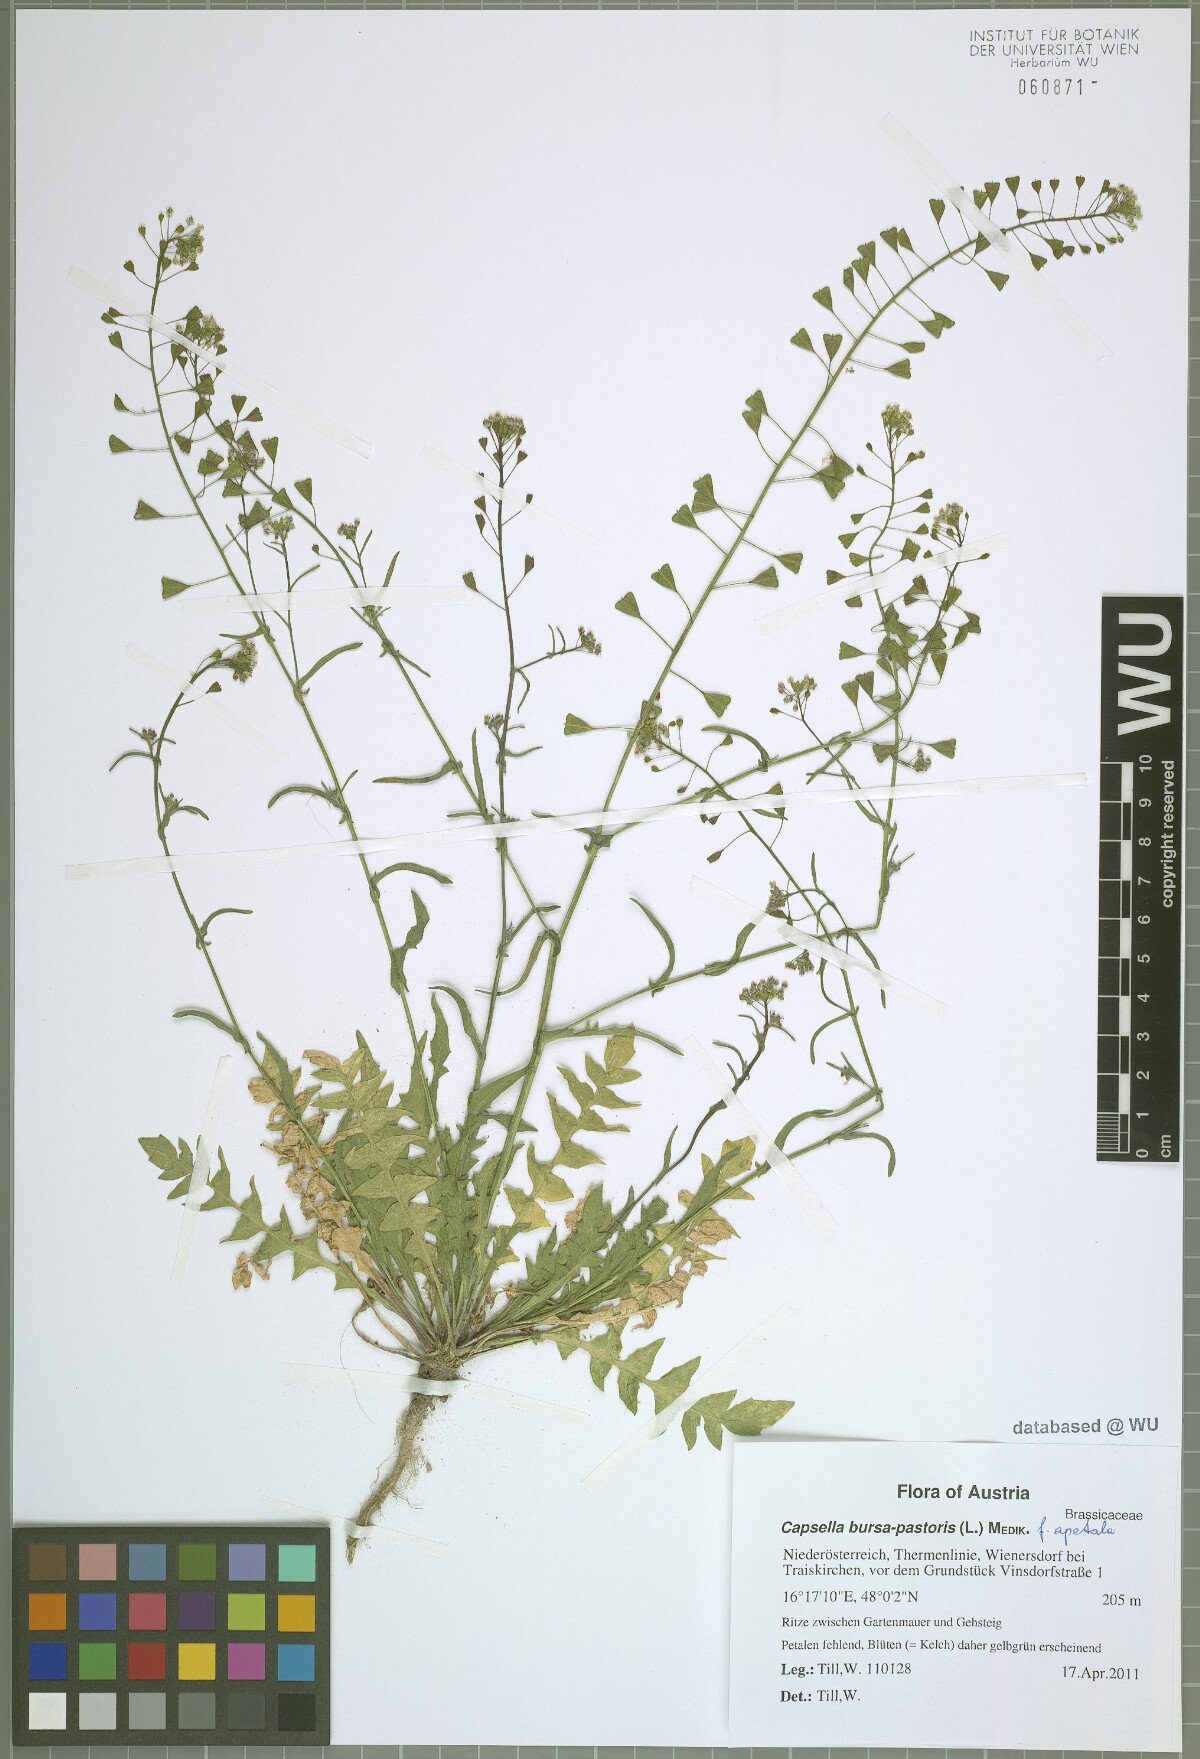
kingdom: Plantae
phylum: Tracheophyta
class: Magnoliopsida
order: Brassicales
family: Brassicaceae
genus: Capsella
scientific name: Capsella bursa-pastoris
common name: Shepherd's purse
